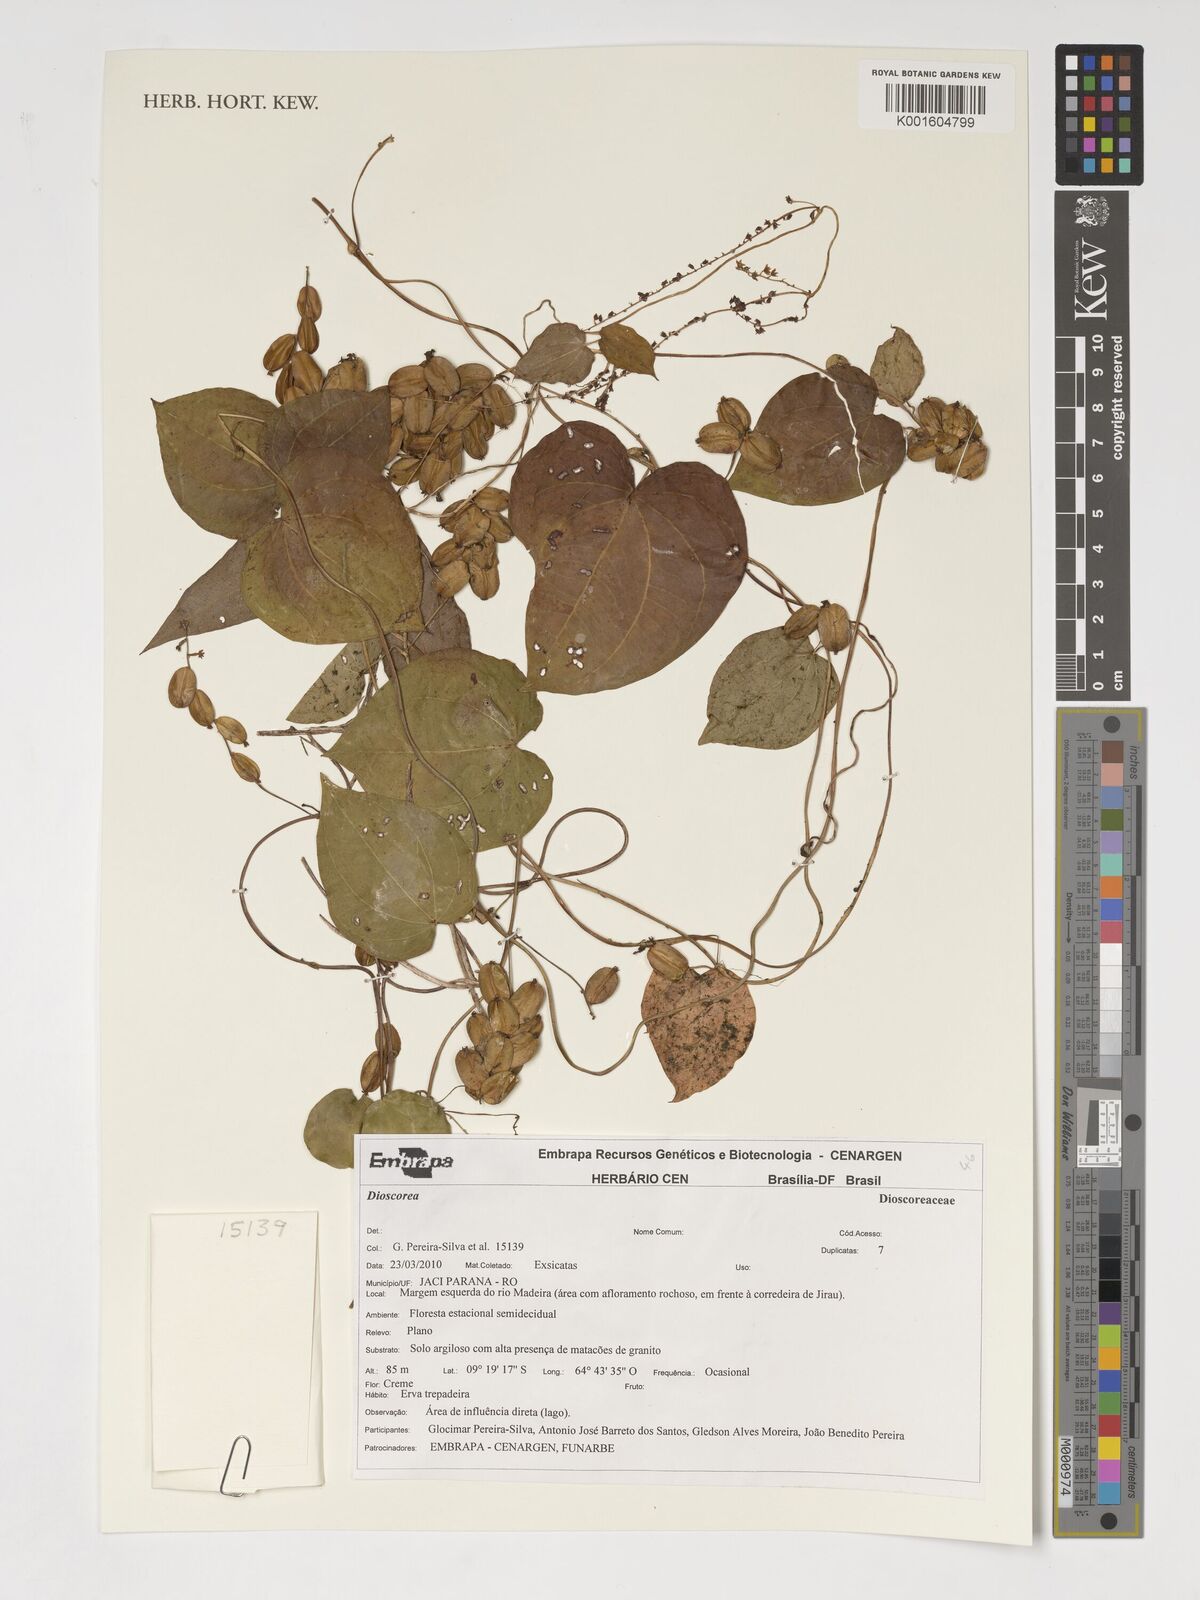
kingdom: Plantae
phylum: Tracheophyta
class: Liliopsida
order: Dioscoreales
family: Dioscoreaceae
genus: Dioscorea
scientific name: Dioscorea
